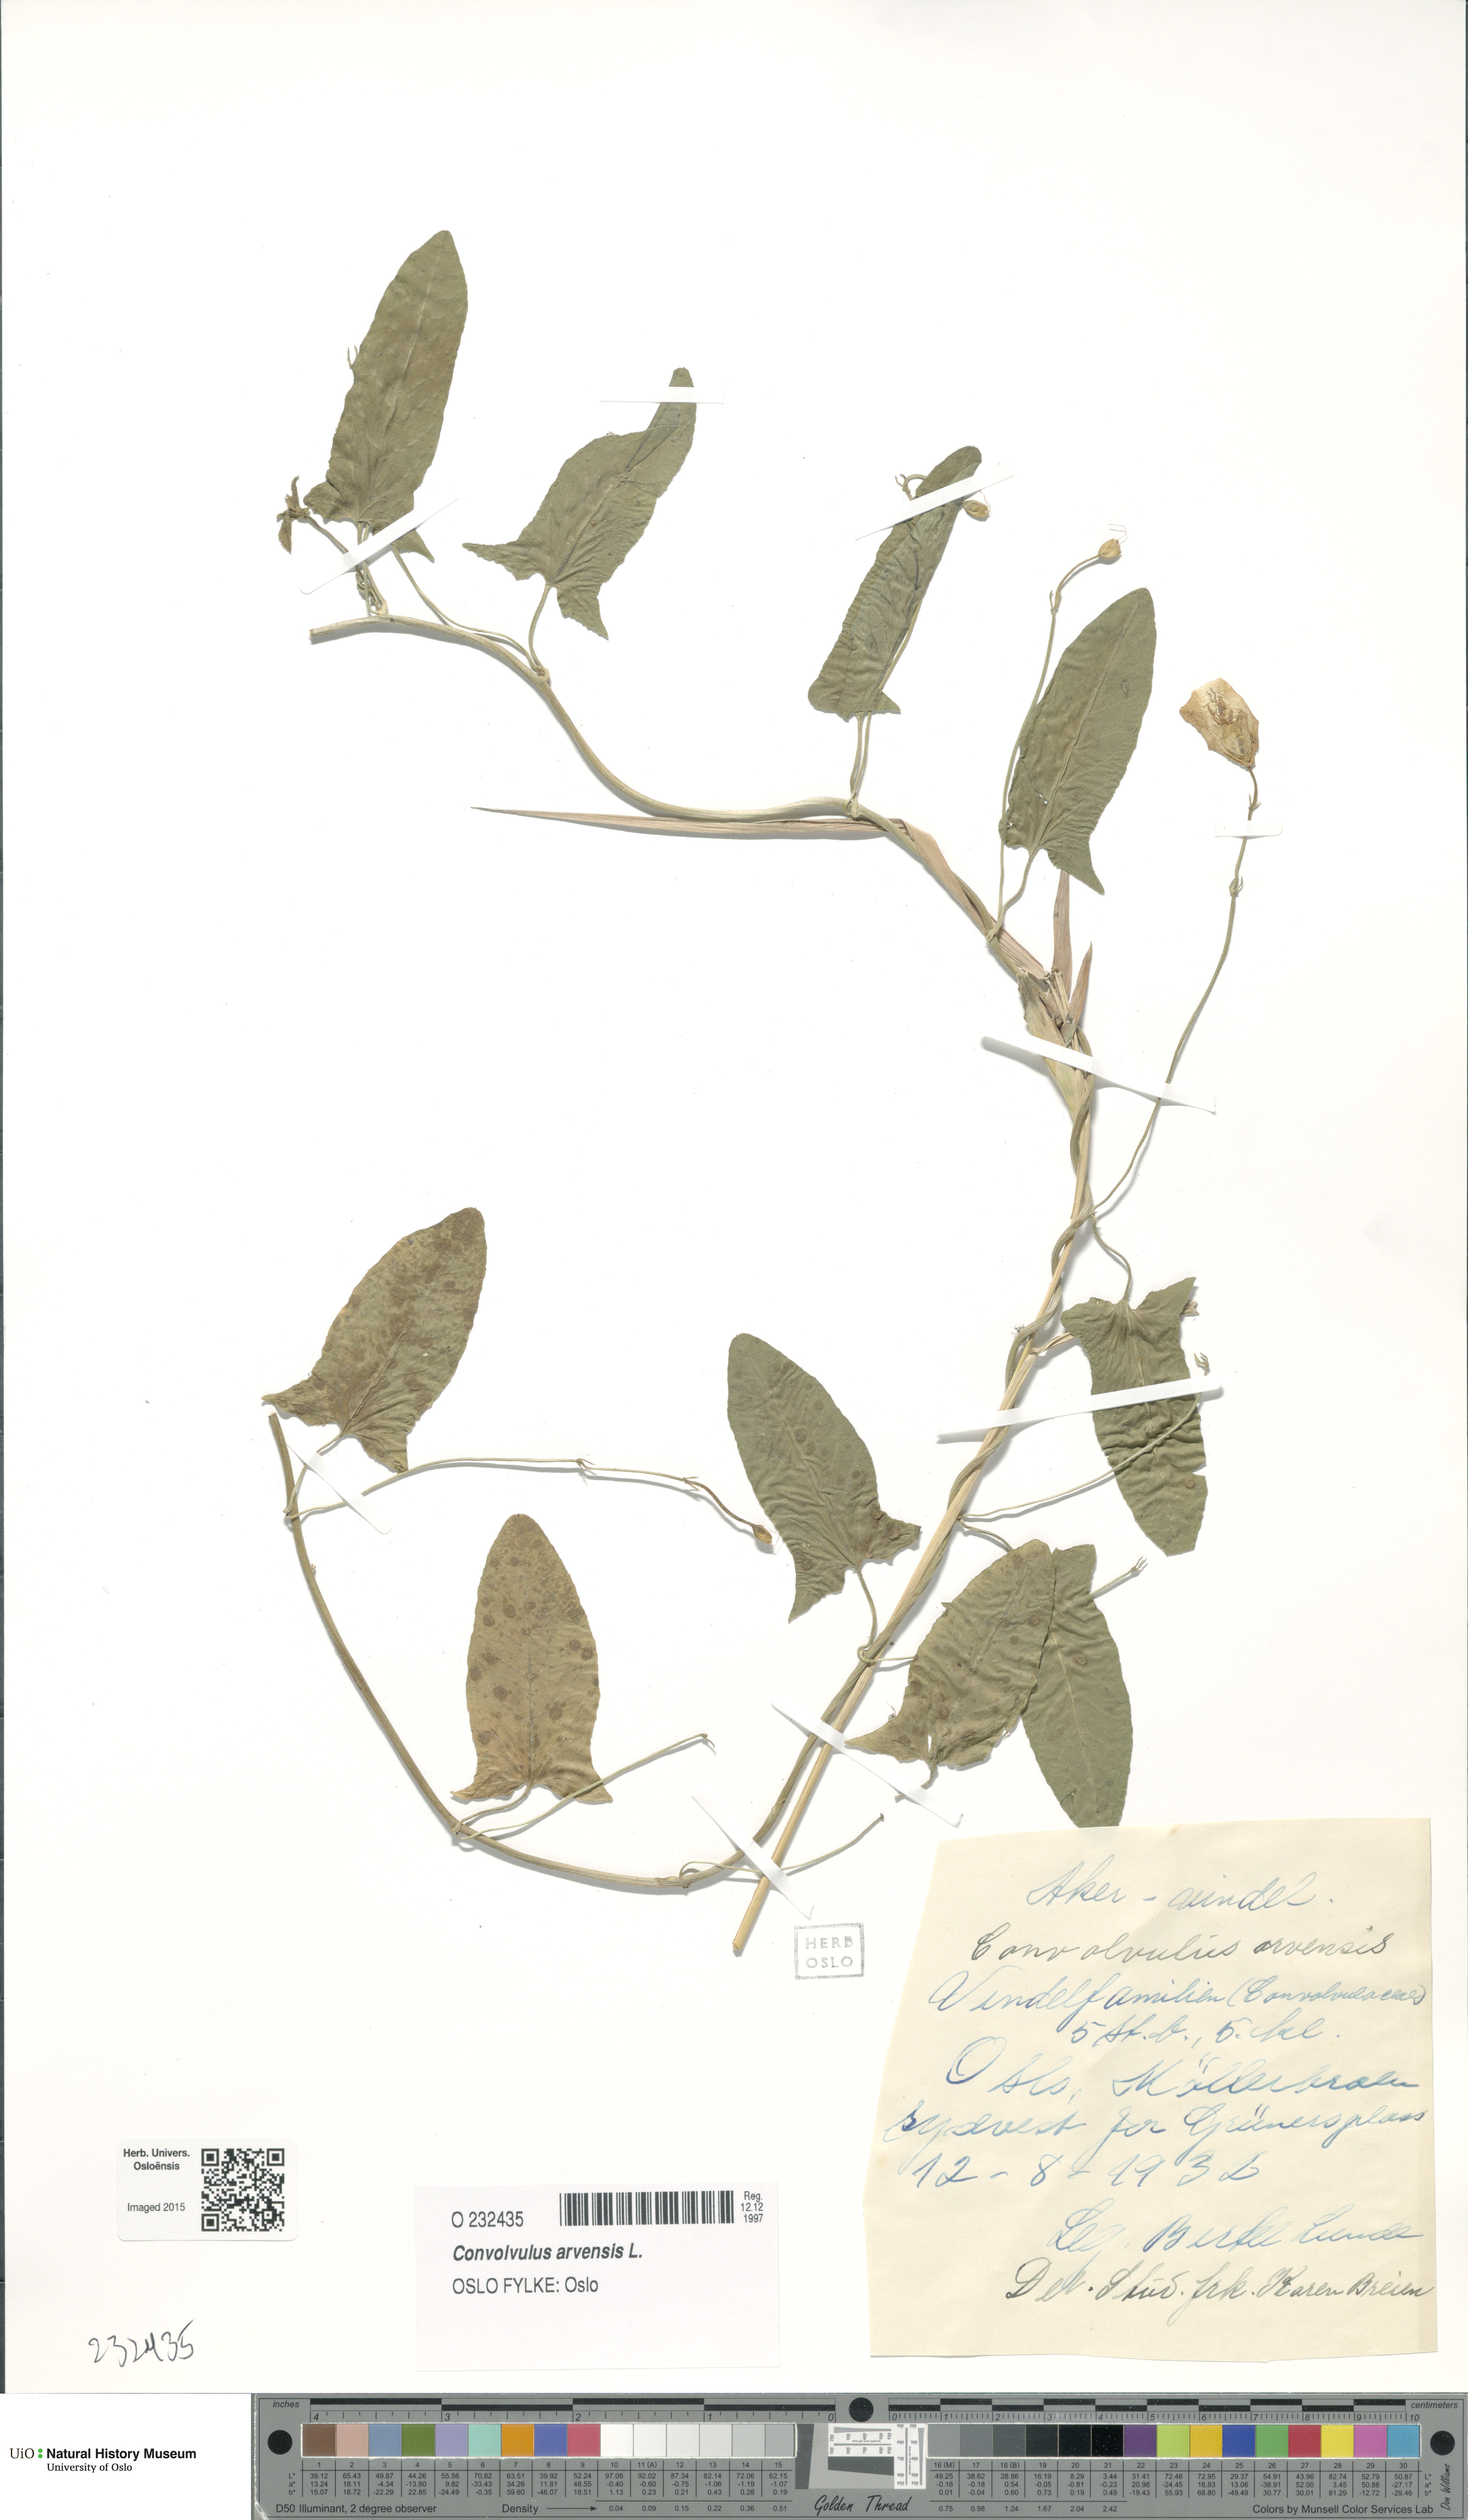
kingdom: Plantae
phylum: Tracheophyta
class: Magnoliopsida
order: Solanales
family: Convolvulaceae
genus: Convolvulus
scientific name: Convolvulus arvensis
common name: Field bindweed
